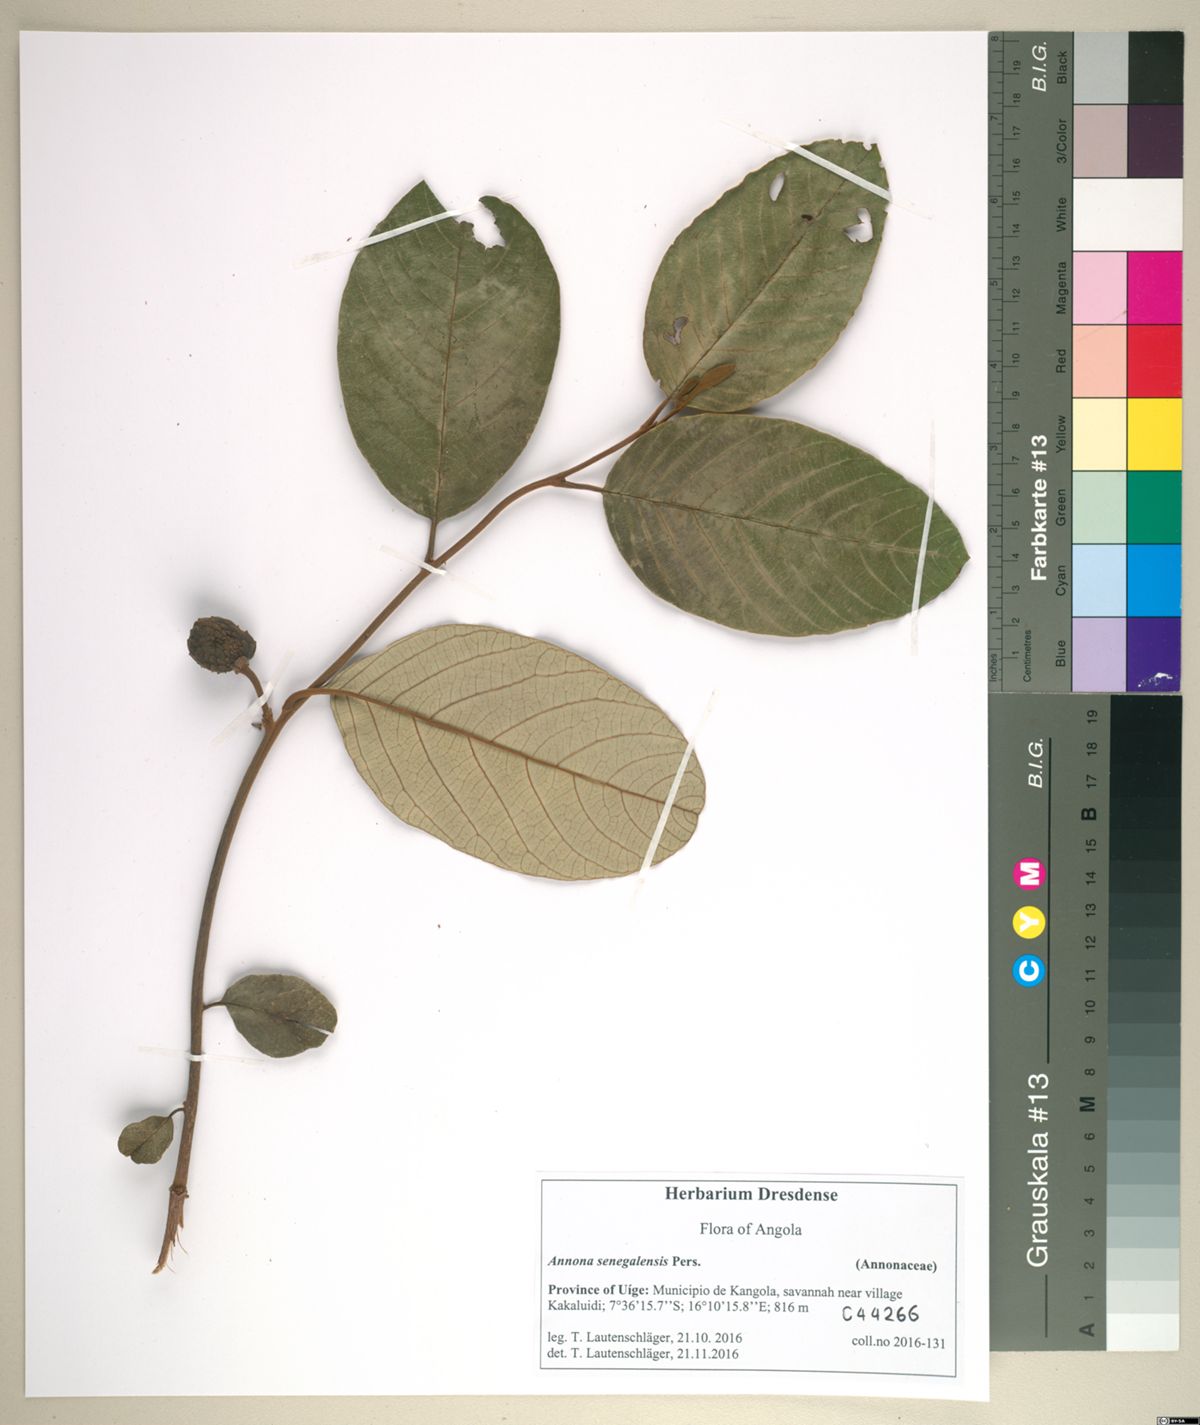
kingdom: Plantae
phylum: Tracheophyta
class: Magnoliopsida
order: Magnoliales
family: Annonaceae
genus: Annona
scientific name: Annona senegalensis
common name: Wild custard-apple
